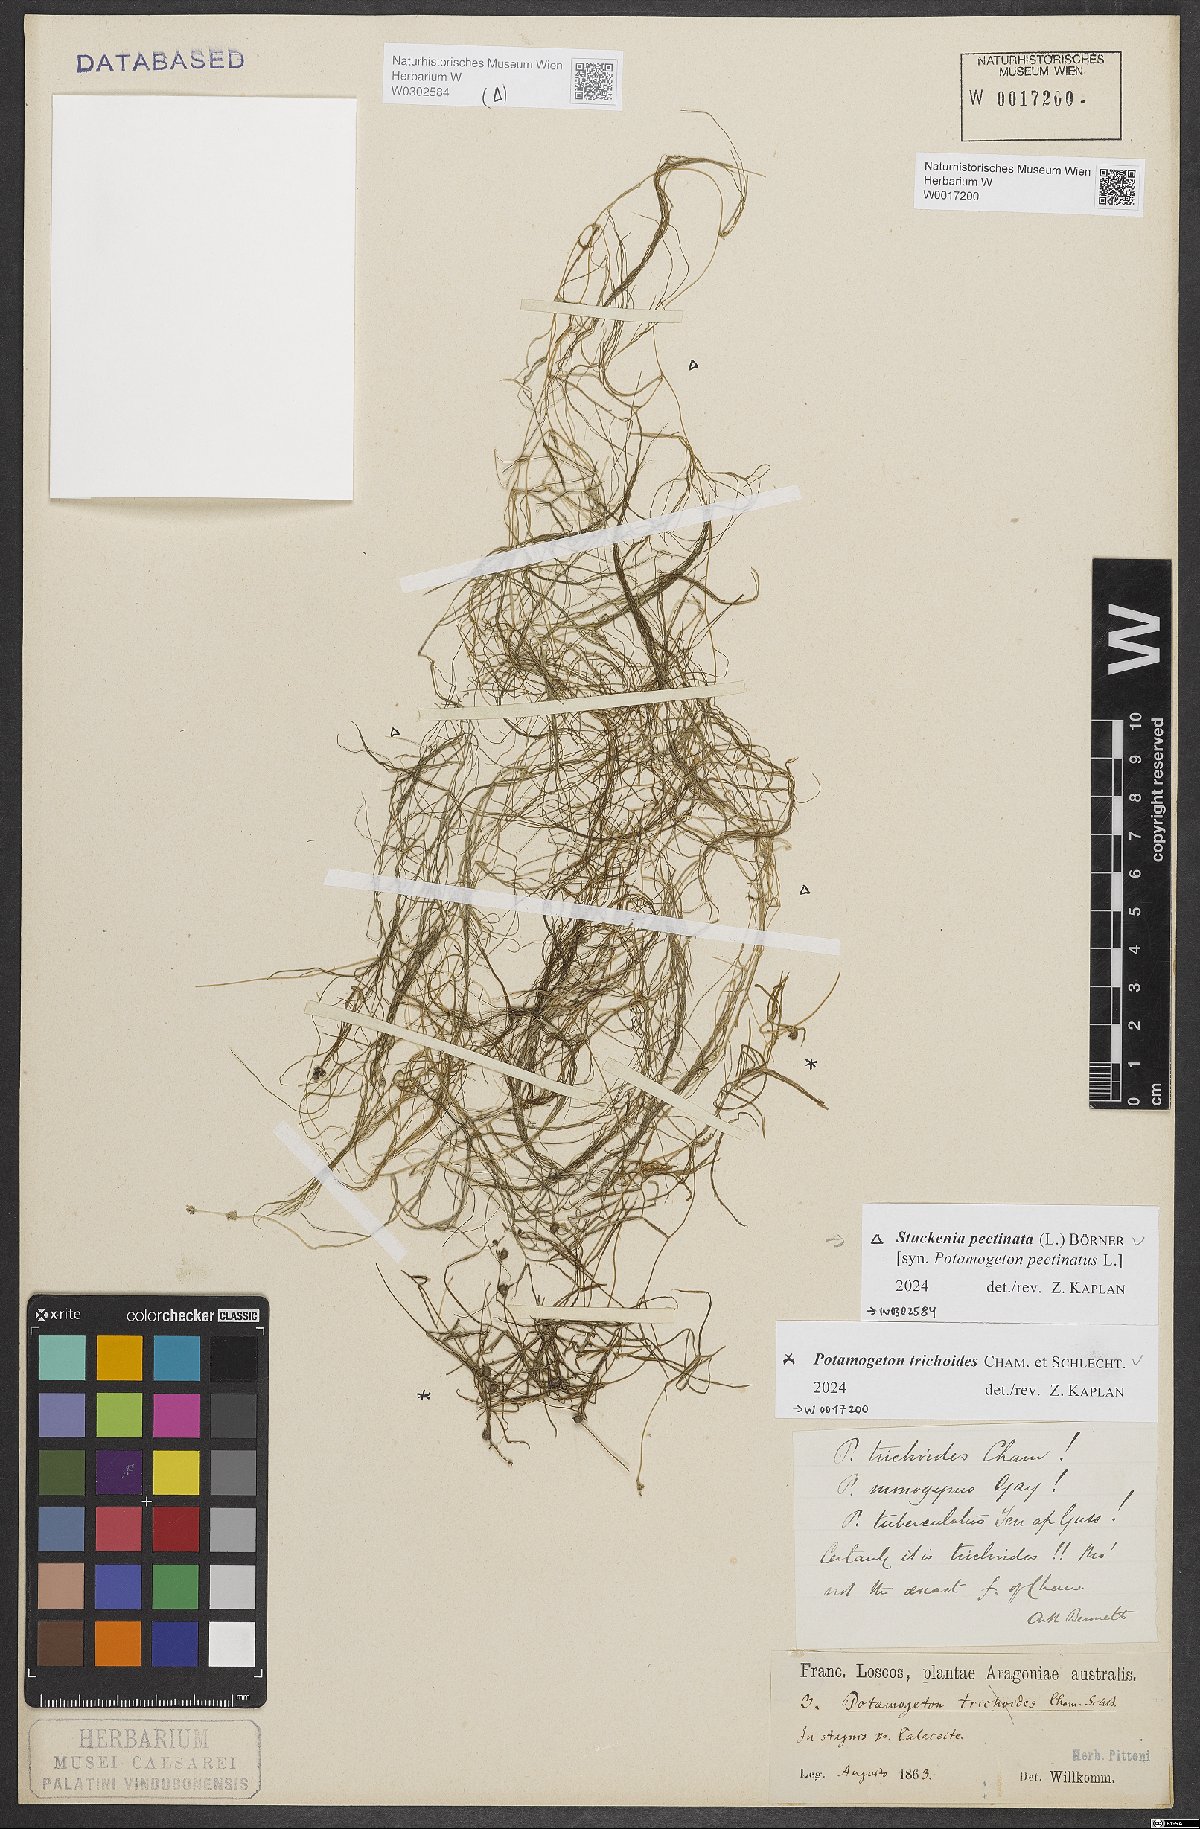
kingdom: Plantae
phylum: Tracheophyta
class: Liliopsida
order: Alismatales
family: Potamogetonaceae
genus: Potamogeton
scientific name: Potamogeton trichoides
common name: Hairlike pondweed
